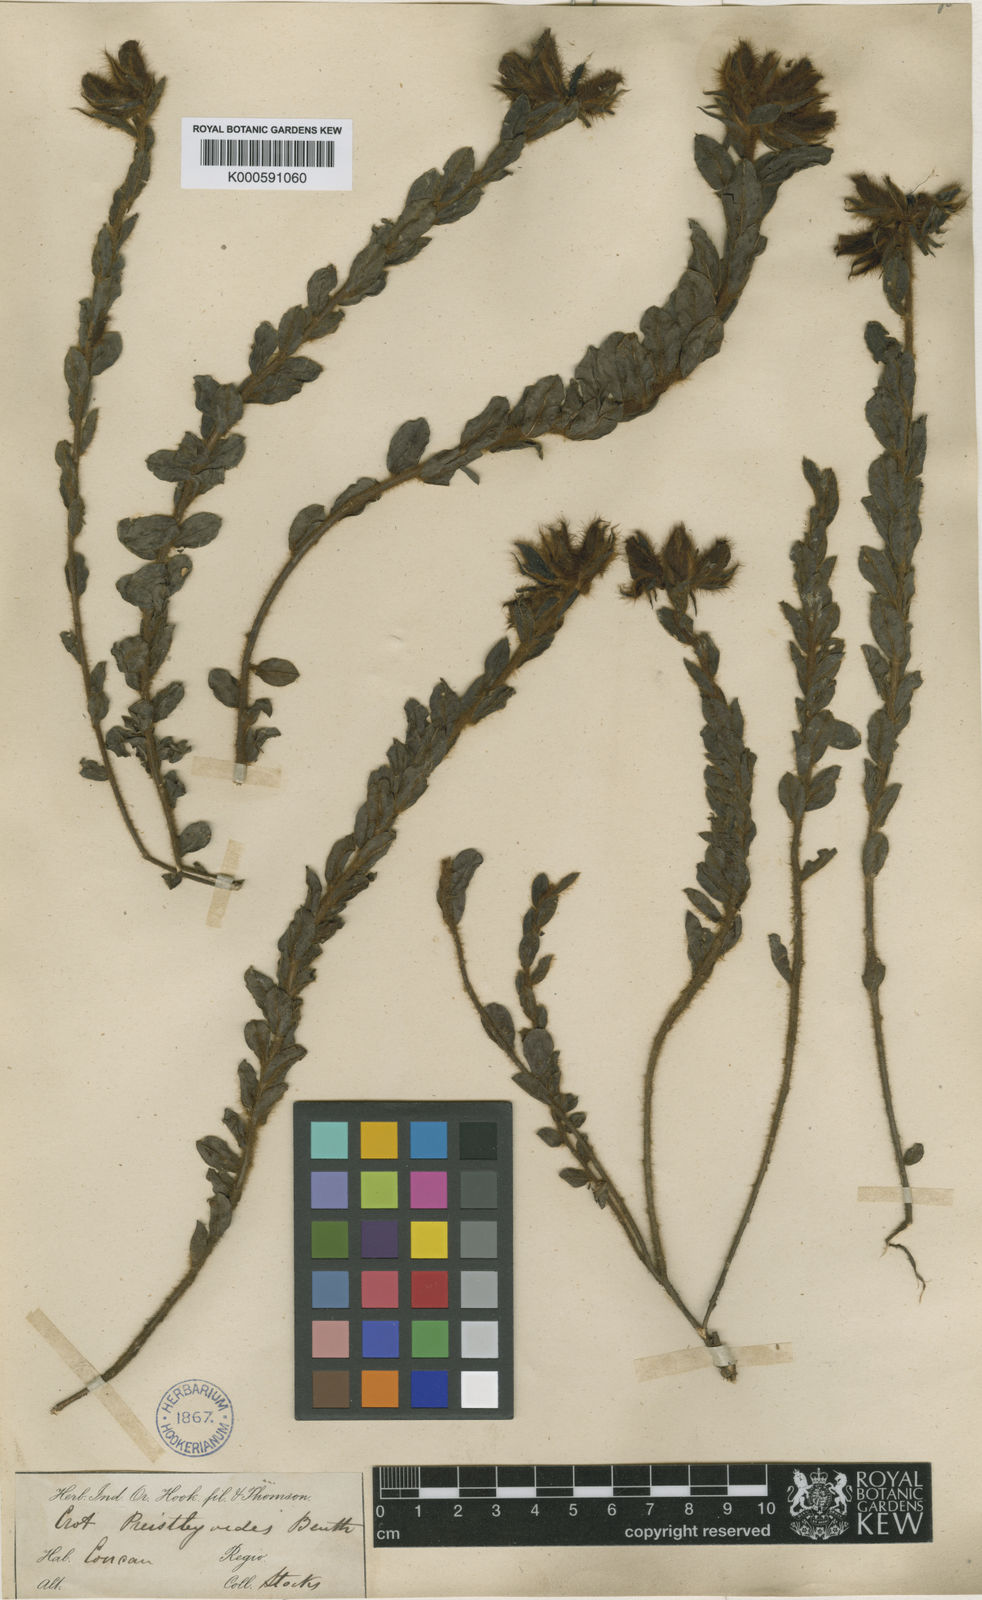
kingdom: Plantae
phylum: Tracheophyta
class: Magnoliopsida
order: Fabales
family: Fabaceae
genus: Crotalaria
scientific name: Crotalaria
